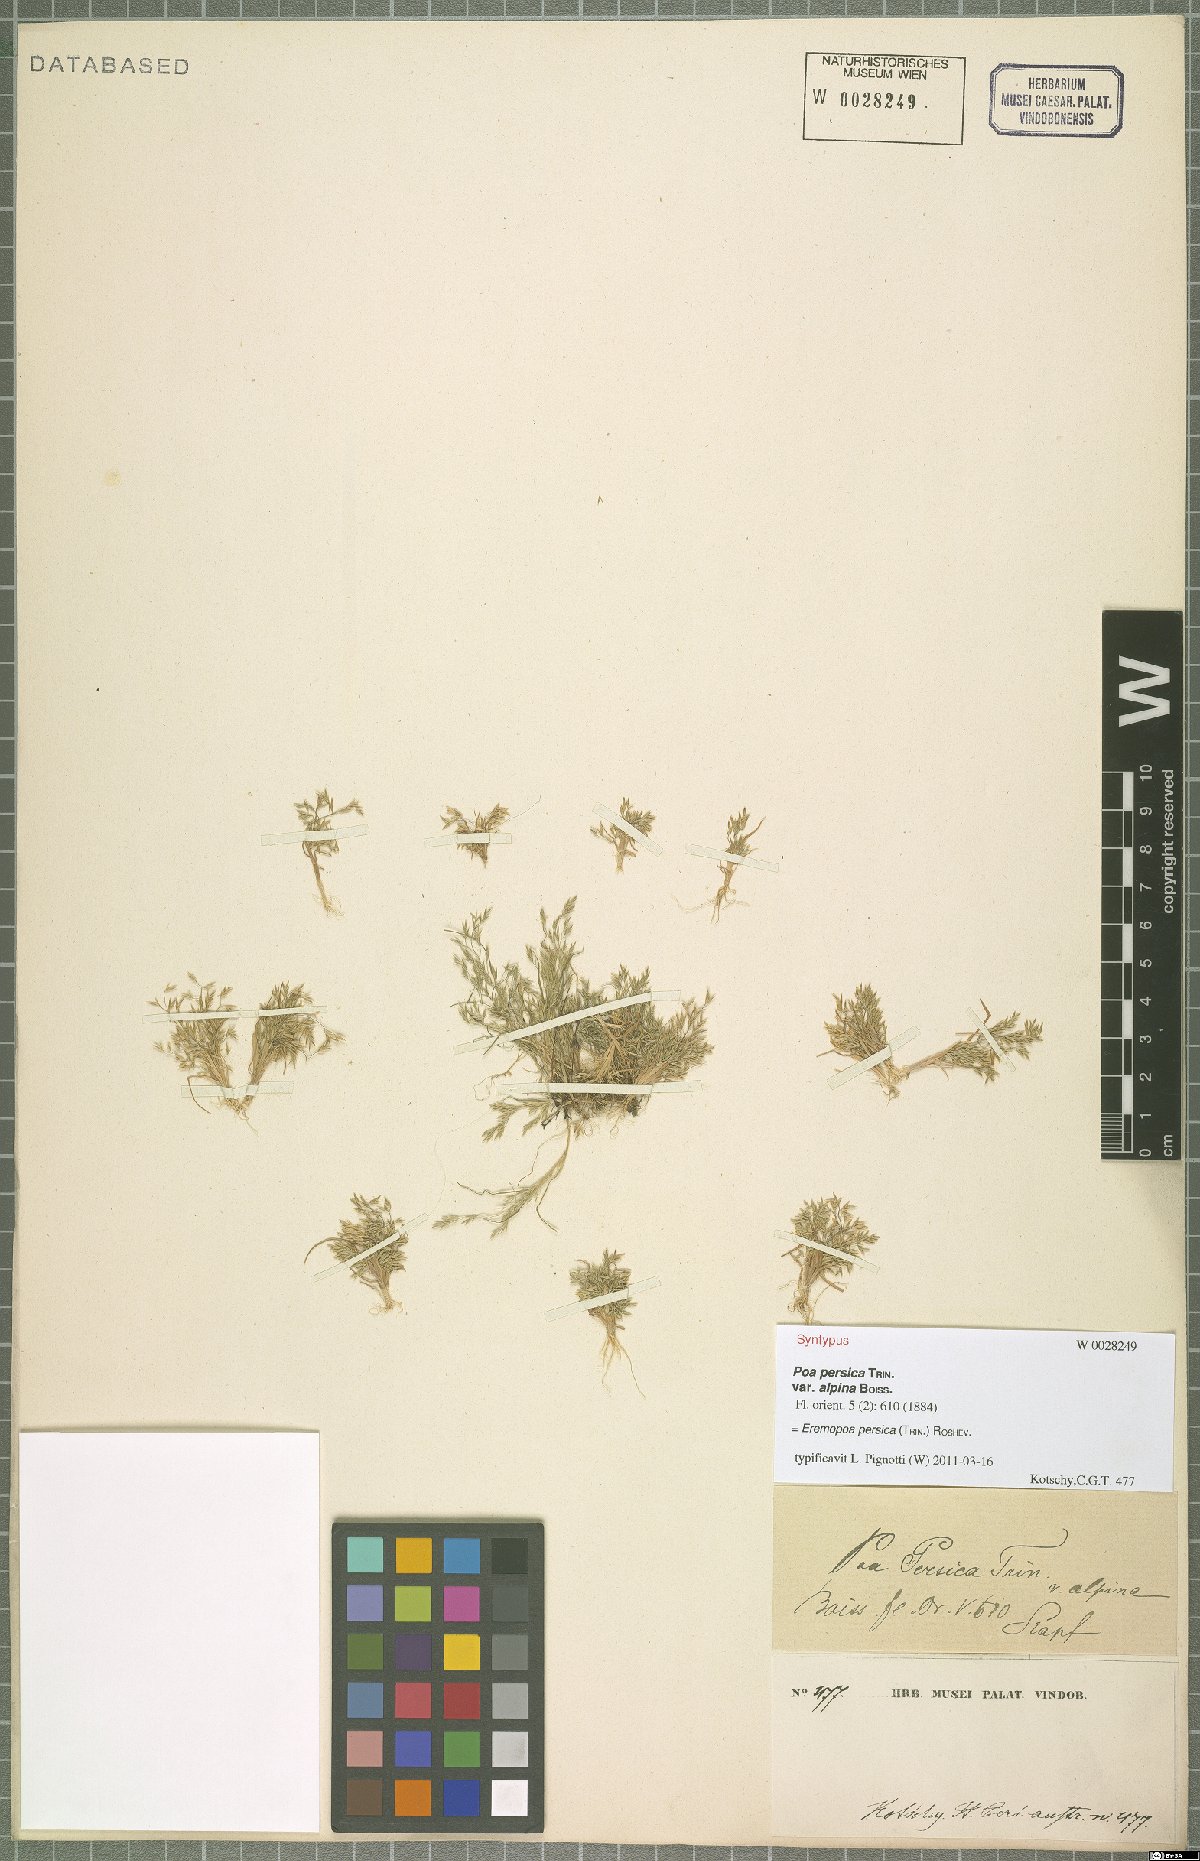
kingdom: Plantae
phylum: Tracheophyta
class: Liliopsida
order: Poales
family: Poaceae
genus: Poa
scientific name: Poa persica
